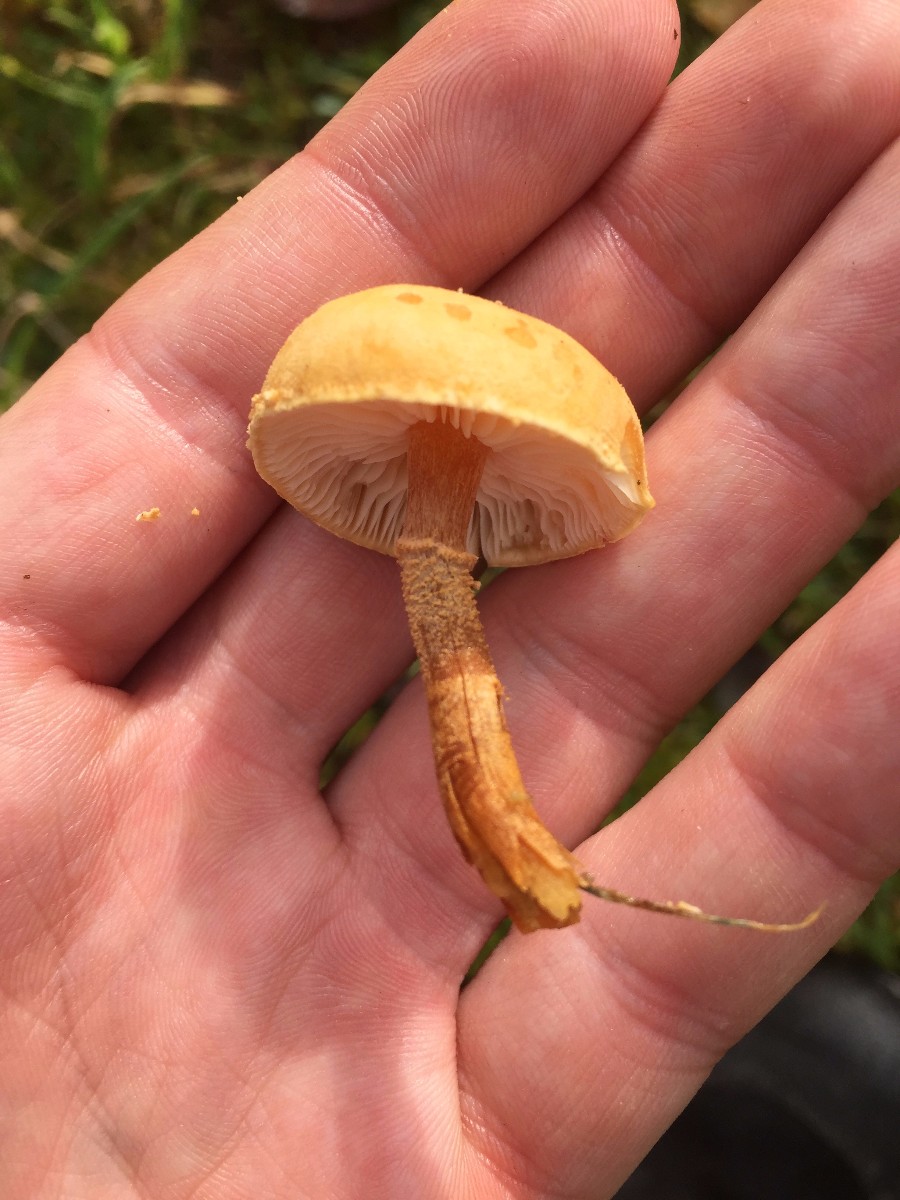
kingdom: Fungi
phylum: Basidiomycota
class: Agaricomycetes
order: Agaricales
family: Tricholomataceae
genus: Cystoderma
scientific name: Cystoderma amianthinum
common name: okkergul grynhat
